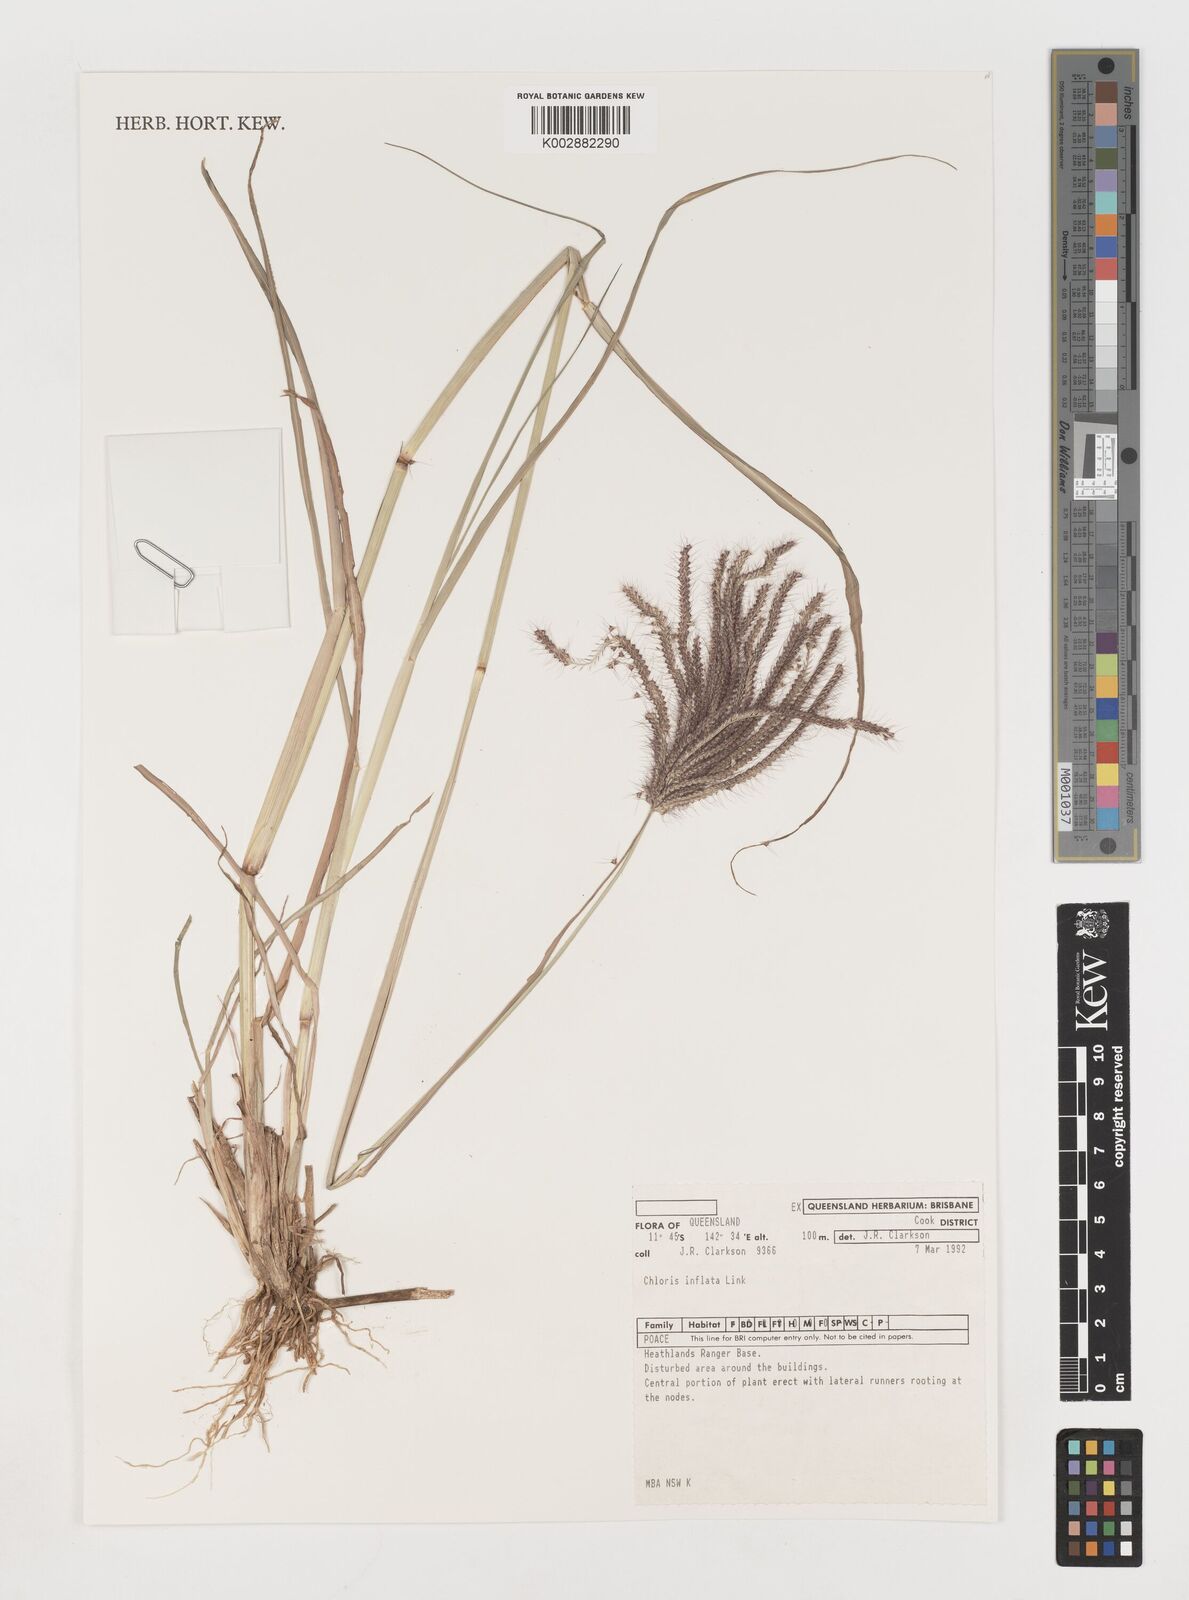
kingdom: Plantae
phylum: Tracheophyta
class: Liliopsida
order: Poales
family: Poaceae
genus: Chloris
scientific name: Chloris barbata
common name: Swollen fingergrass
